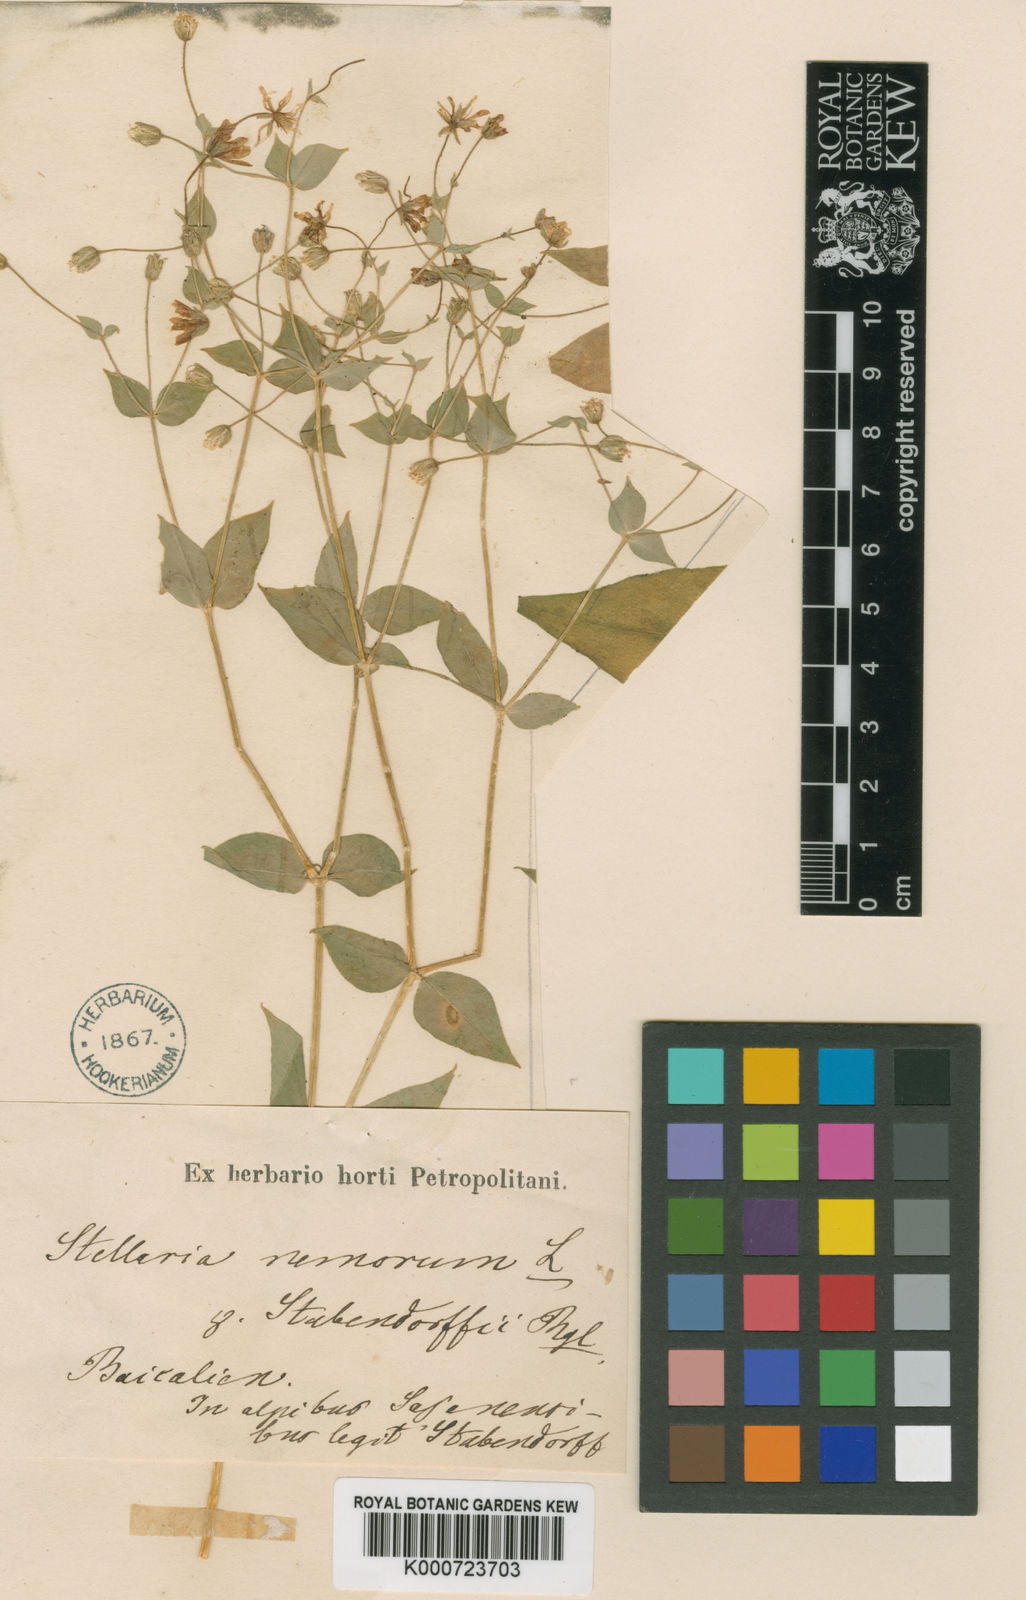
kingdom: Plantae
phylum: Tracheophyta
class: Magnoliopsida
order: Caryophyllales
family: Caryophyllaceae
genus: Stellaria
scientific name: Stellaria nemorum
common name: Wood stitchwort
